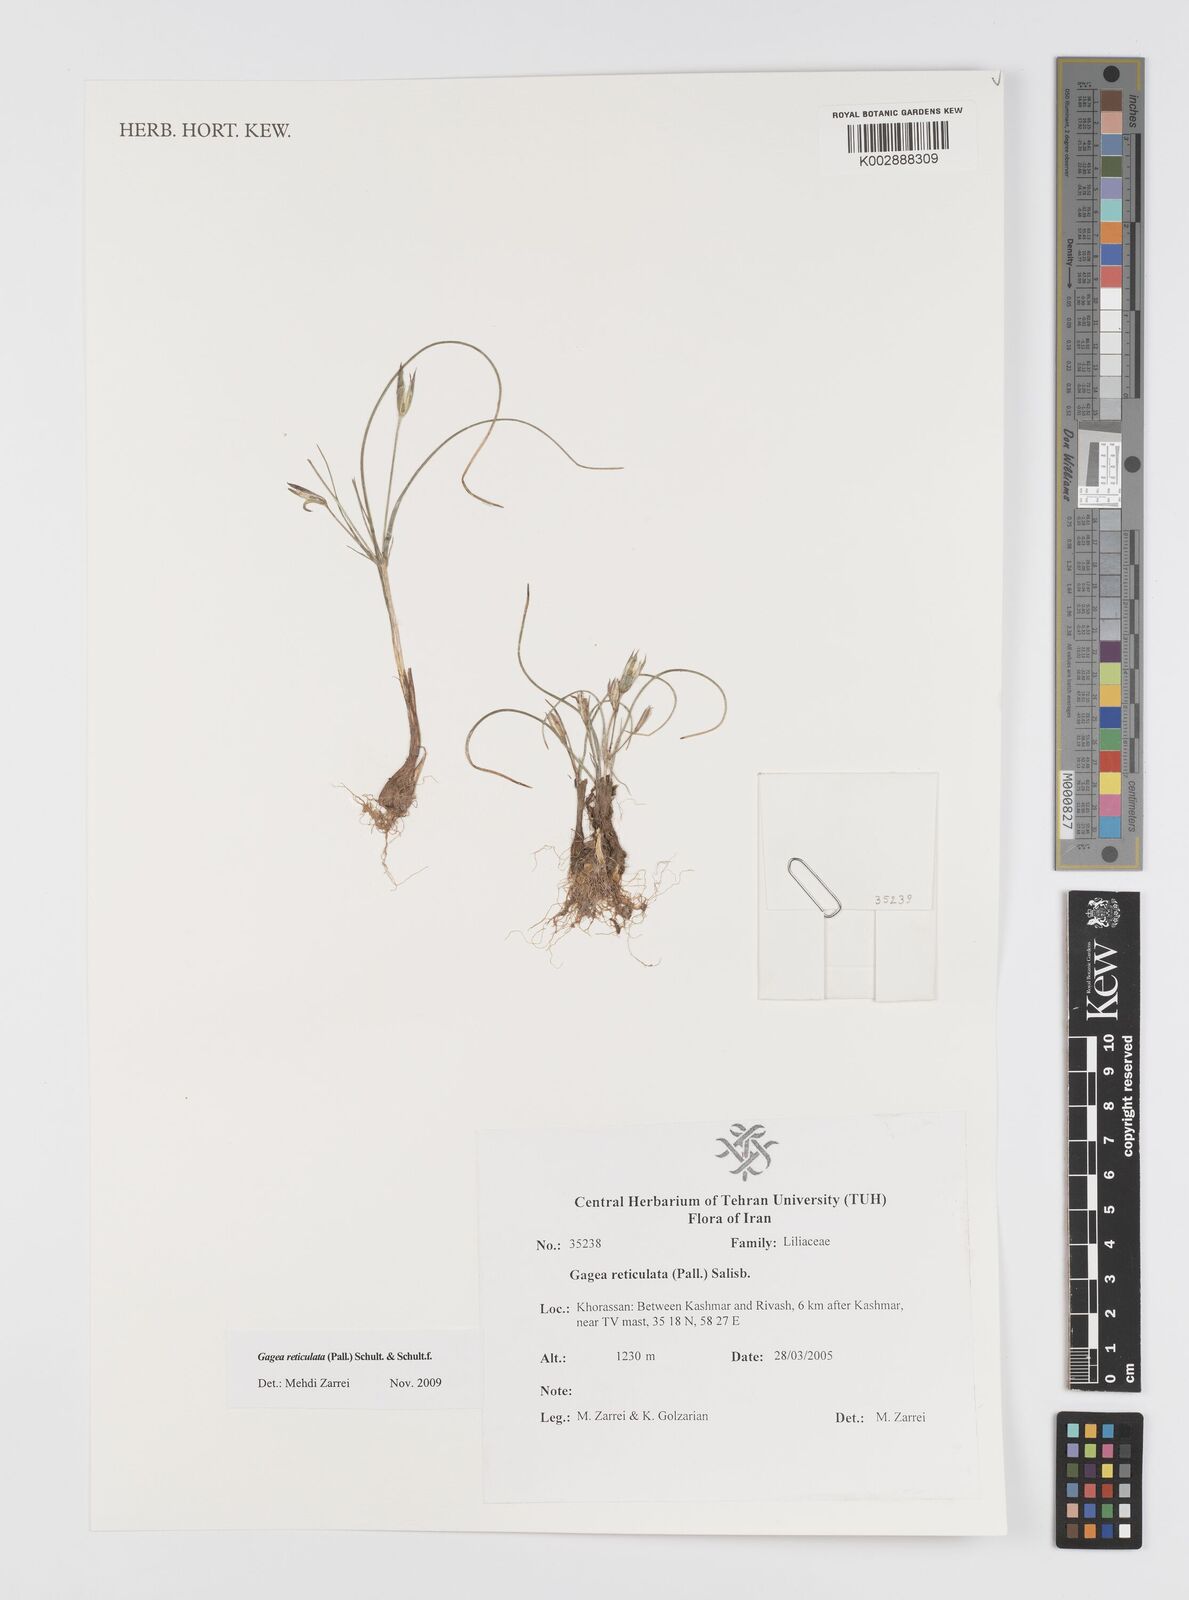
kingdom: Plantae
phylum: Tracheophyta
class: Liliopsida
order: Liliales
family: Liliaceae
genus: Gagea
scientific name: Gagea reticulata
